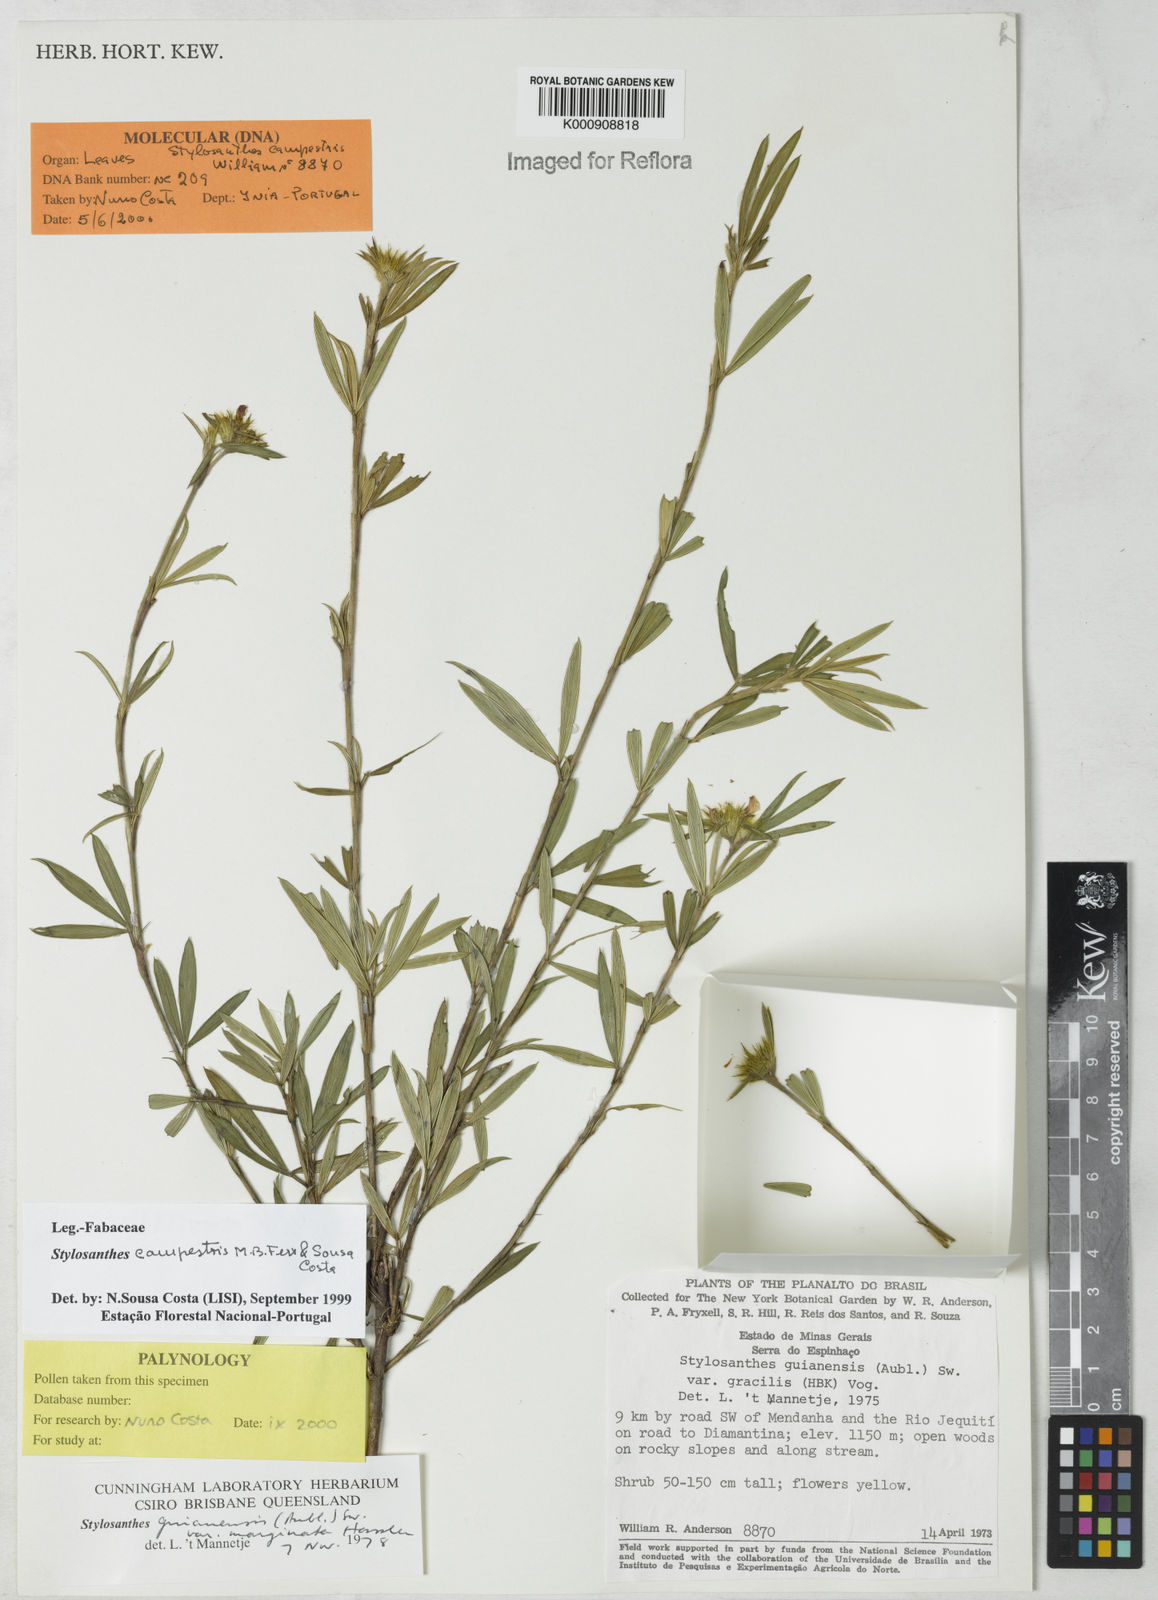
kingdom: Plantae
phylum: Tracheophyta
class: Magnoliopsida
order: Fabales
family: Fabaceae
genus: Stylosanthes
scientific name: Stylosanthes campestris
